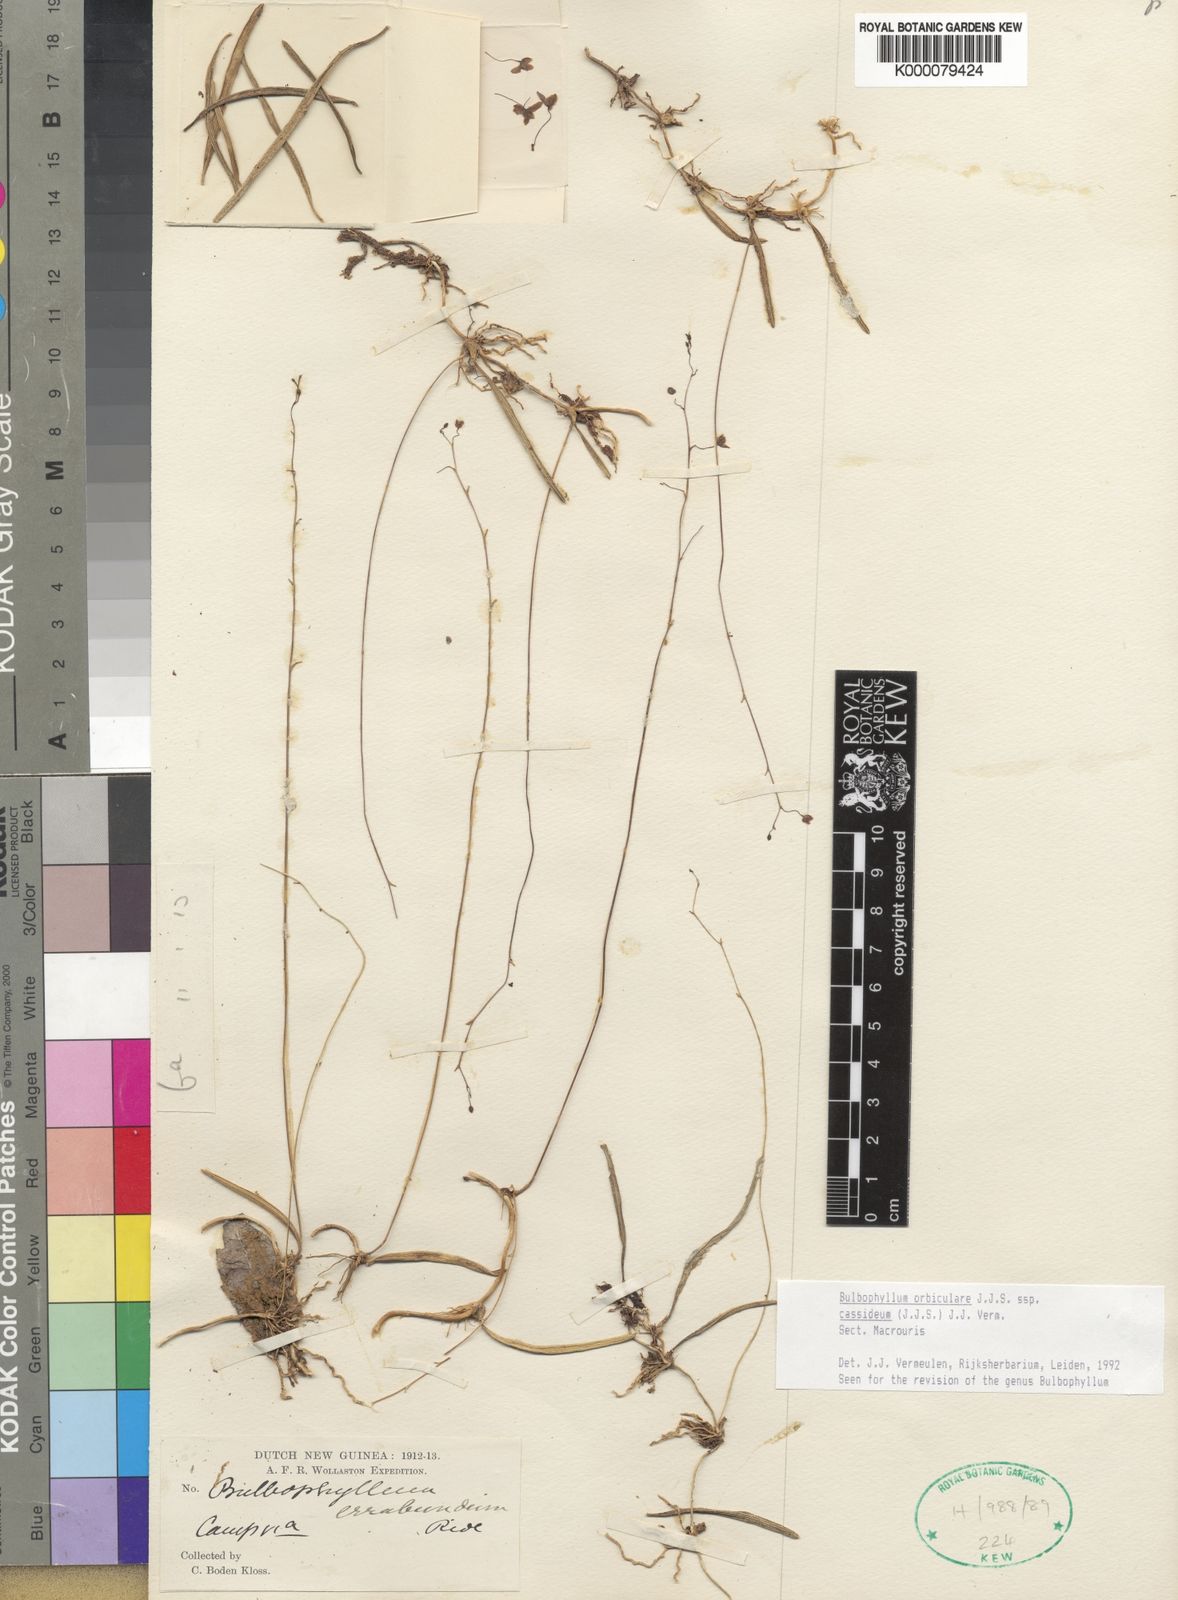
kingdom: Plantae
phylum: Tracheophyta
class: Liliopsida
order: Asparagales
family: Orchidaceae
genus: Bulbophyllum
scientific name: Bulbophyllum orbiculare
